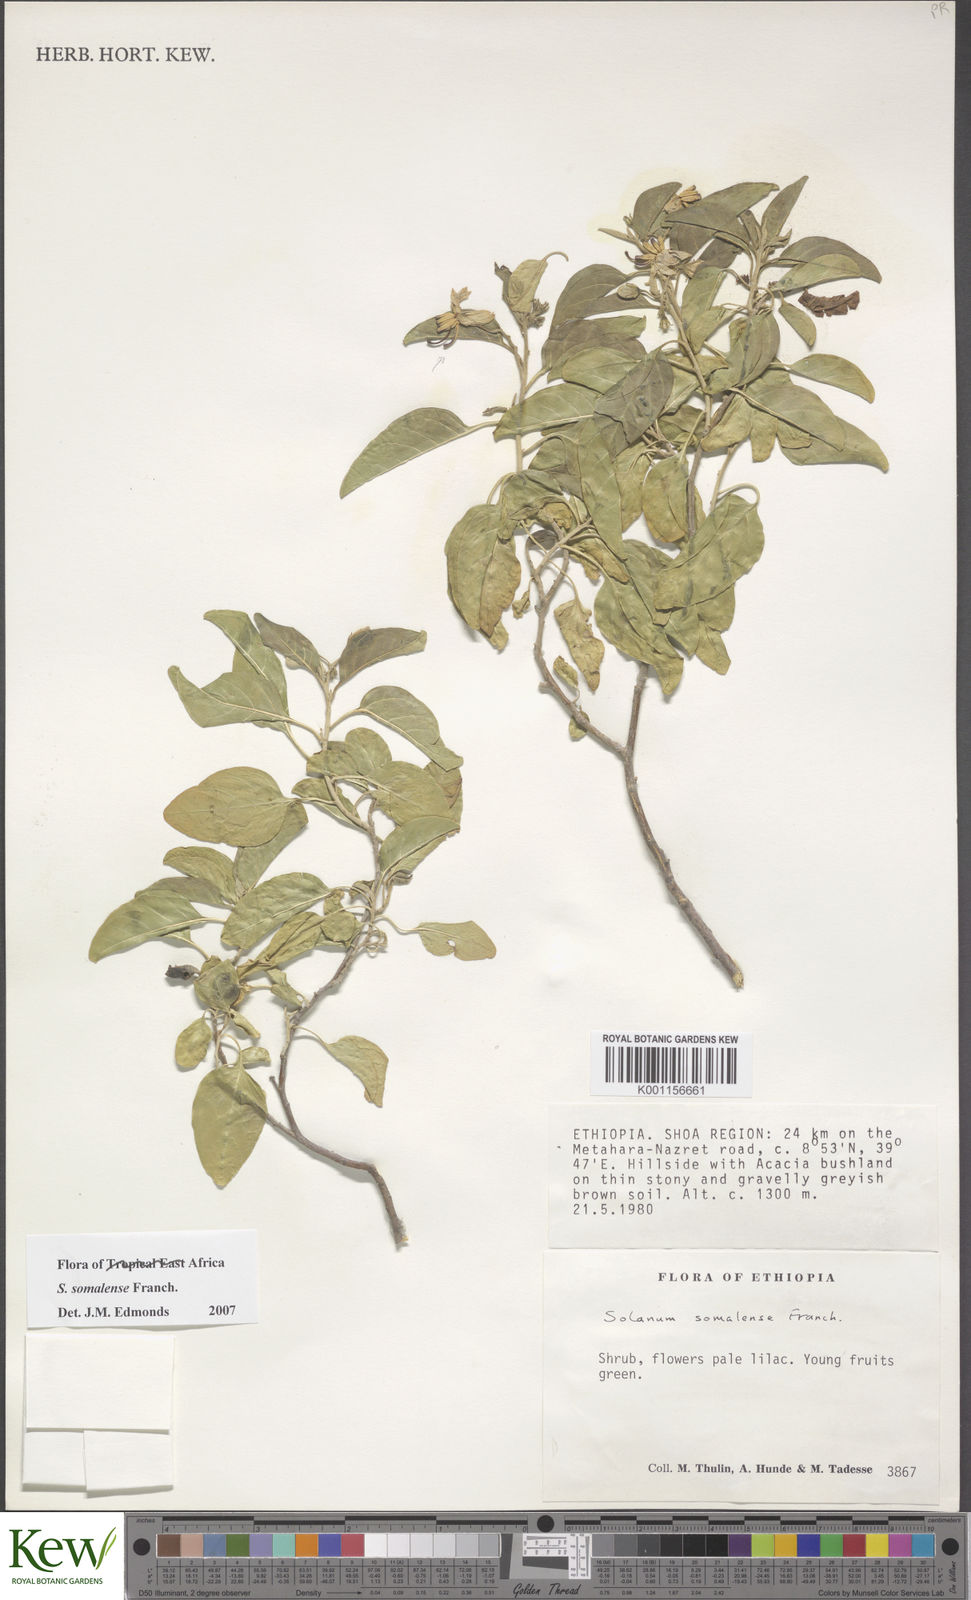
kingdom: Plantae
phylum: Tracheophyta
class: Magnoliopsida
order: Solanales
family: Solanaceae
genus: Solanum
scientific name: Solanum somalense
